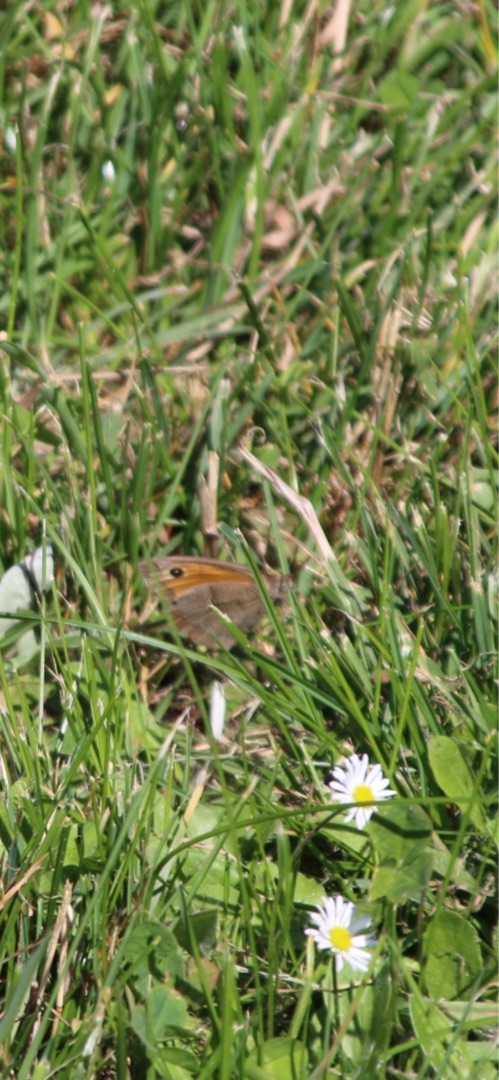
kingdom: Animalia
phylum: Arthropoda
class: Insecta
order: Lepidoptera
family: Nymphalidae
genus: Maniola
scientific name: Maniola jurtina
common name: Græsrandøje
